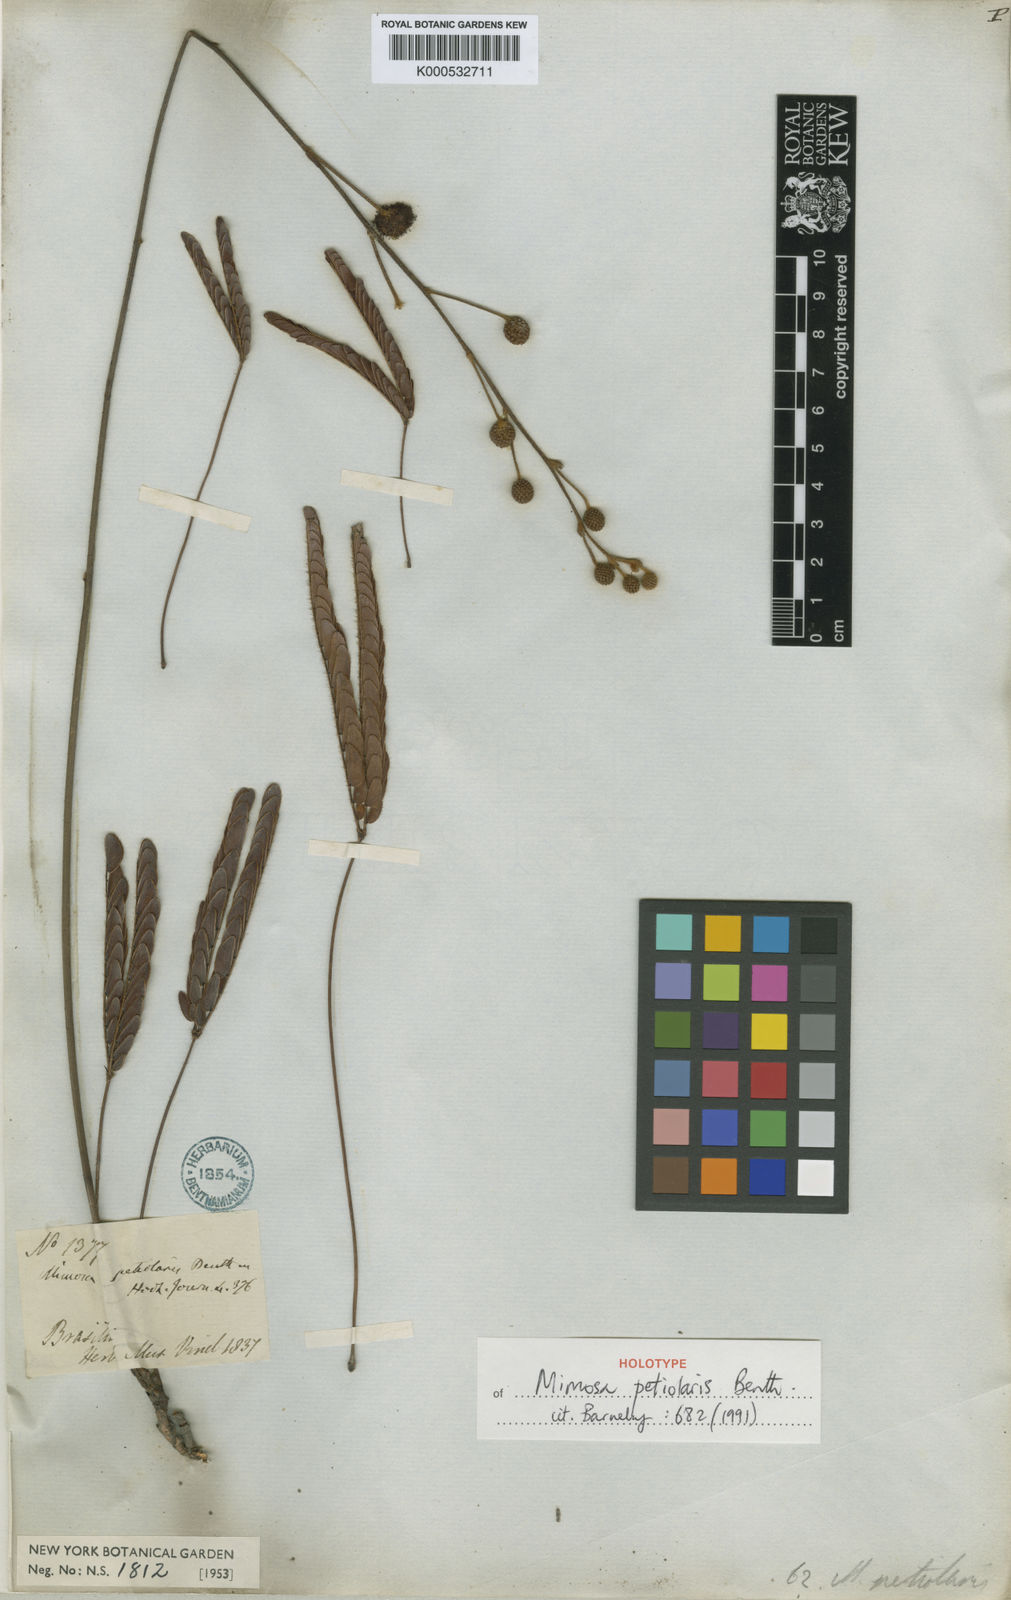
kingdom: Plantae
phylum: Tracheophyta
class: Magnoliopsida
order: Fabales
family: Fabaceae
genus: Mimosa
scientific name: Mimosa petiolaris
